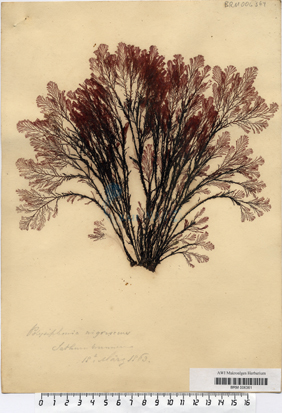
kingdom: Plantae
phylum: Rhodophyta
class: Florideophyceae
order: Ceramiales
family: Rhodomelaceae
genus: Vertebrata
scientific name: Vertebrata spec
